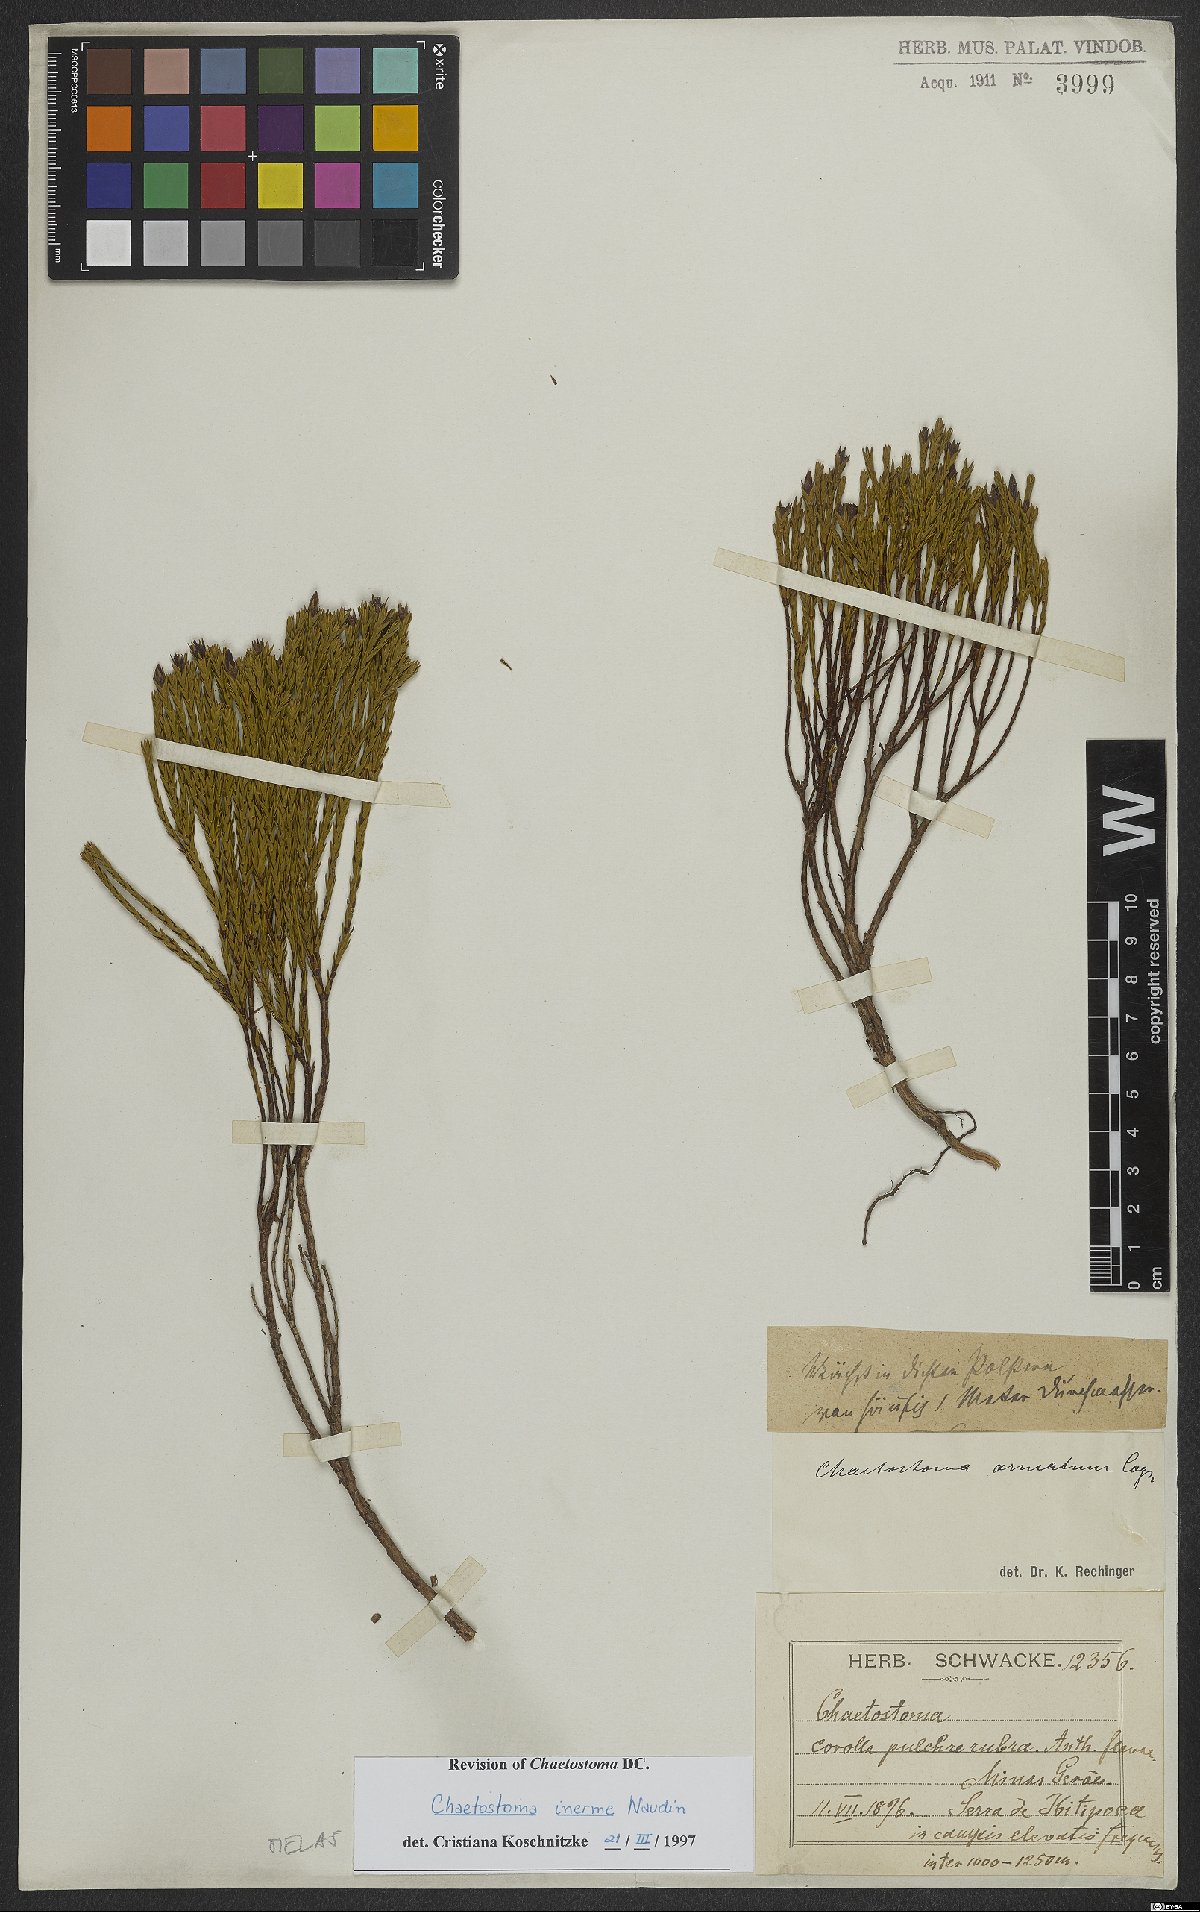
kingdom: Plantae
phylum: Tracheophyta
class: Magnoliopsida
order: Myrtales
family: Melastomataceae
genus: Microlicia
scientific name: Microlicia inermis
